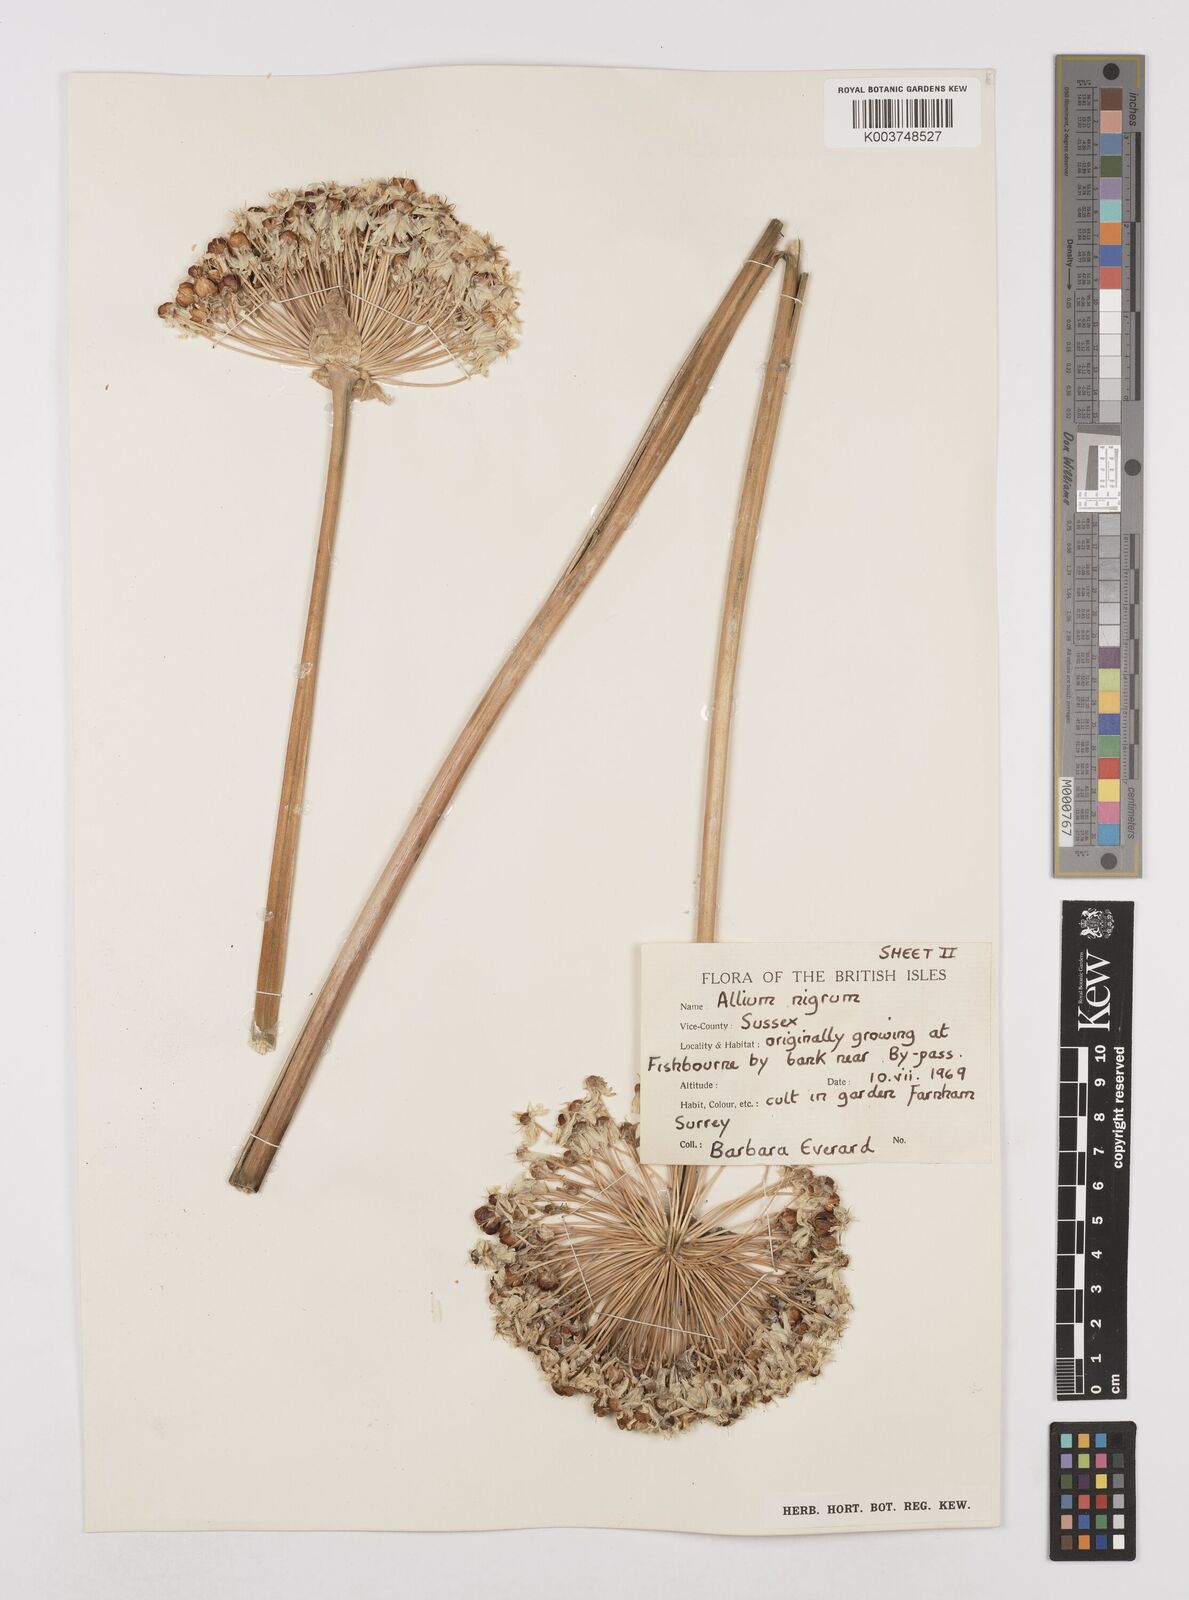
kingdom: Plantae
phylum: Tracheophyta
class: Liliopsida
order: Asparagales
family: Amaryllidaceae
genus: Allium
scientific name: Allium nigrum
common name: Black garlic
